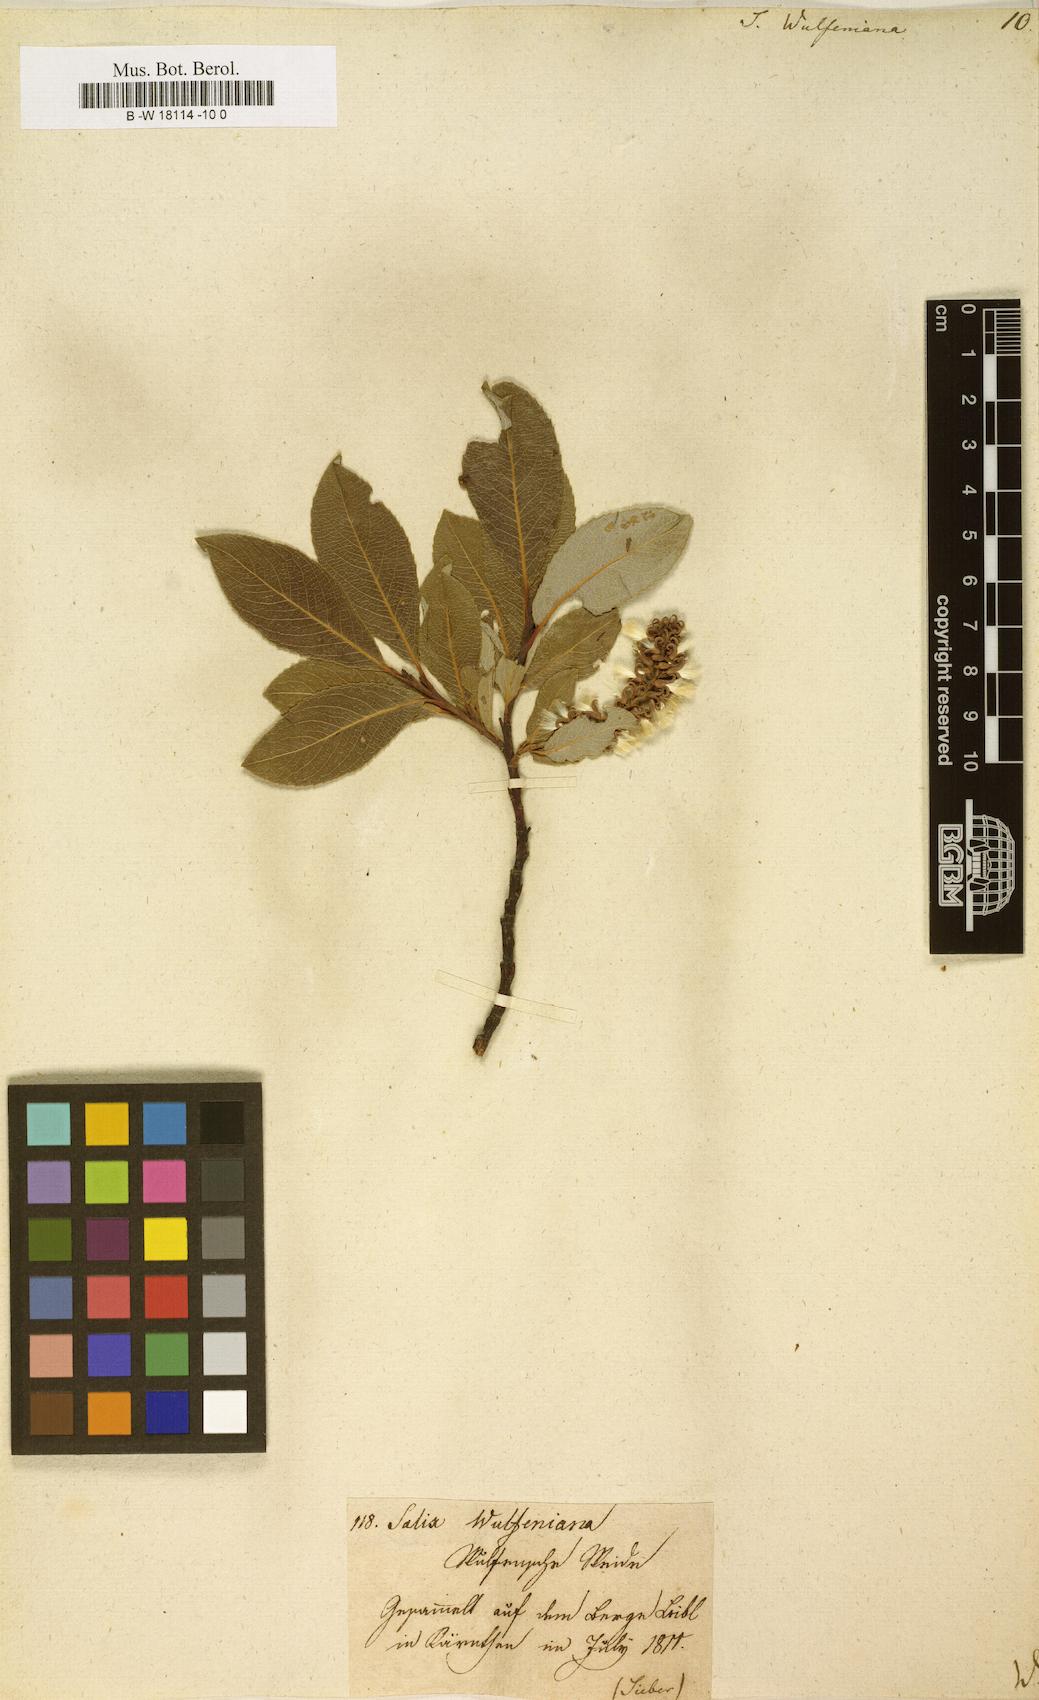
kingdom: Plantae
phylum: Tracheophyta
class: Magnoliopsida
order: Malpighiales
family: Salicaceae
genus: Salix
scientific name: Salix
